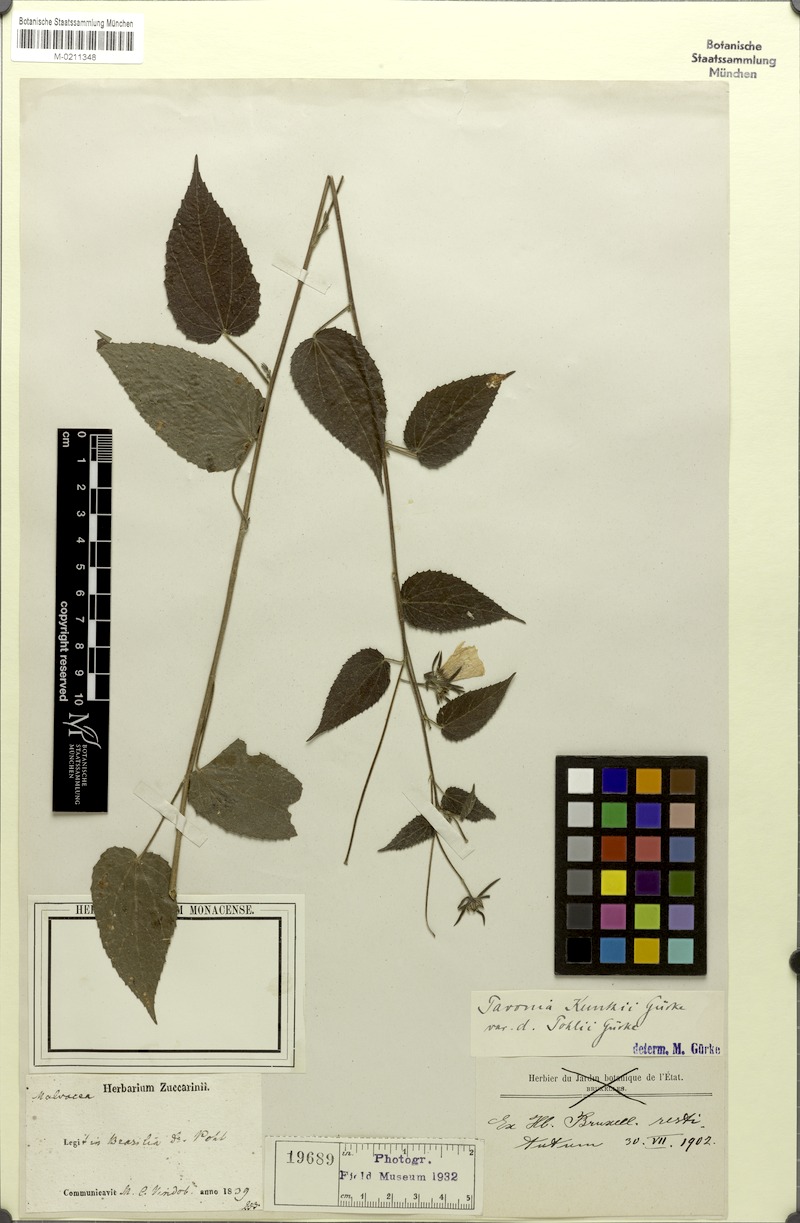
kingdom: Plantae
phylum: Tracheophyta
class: Magnoliopsida
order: Malvales
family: Malvaceae
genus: Pavonia
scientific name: Pavonia hexaphylla
